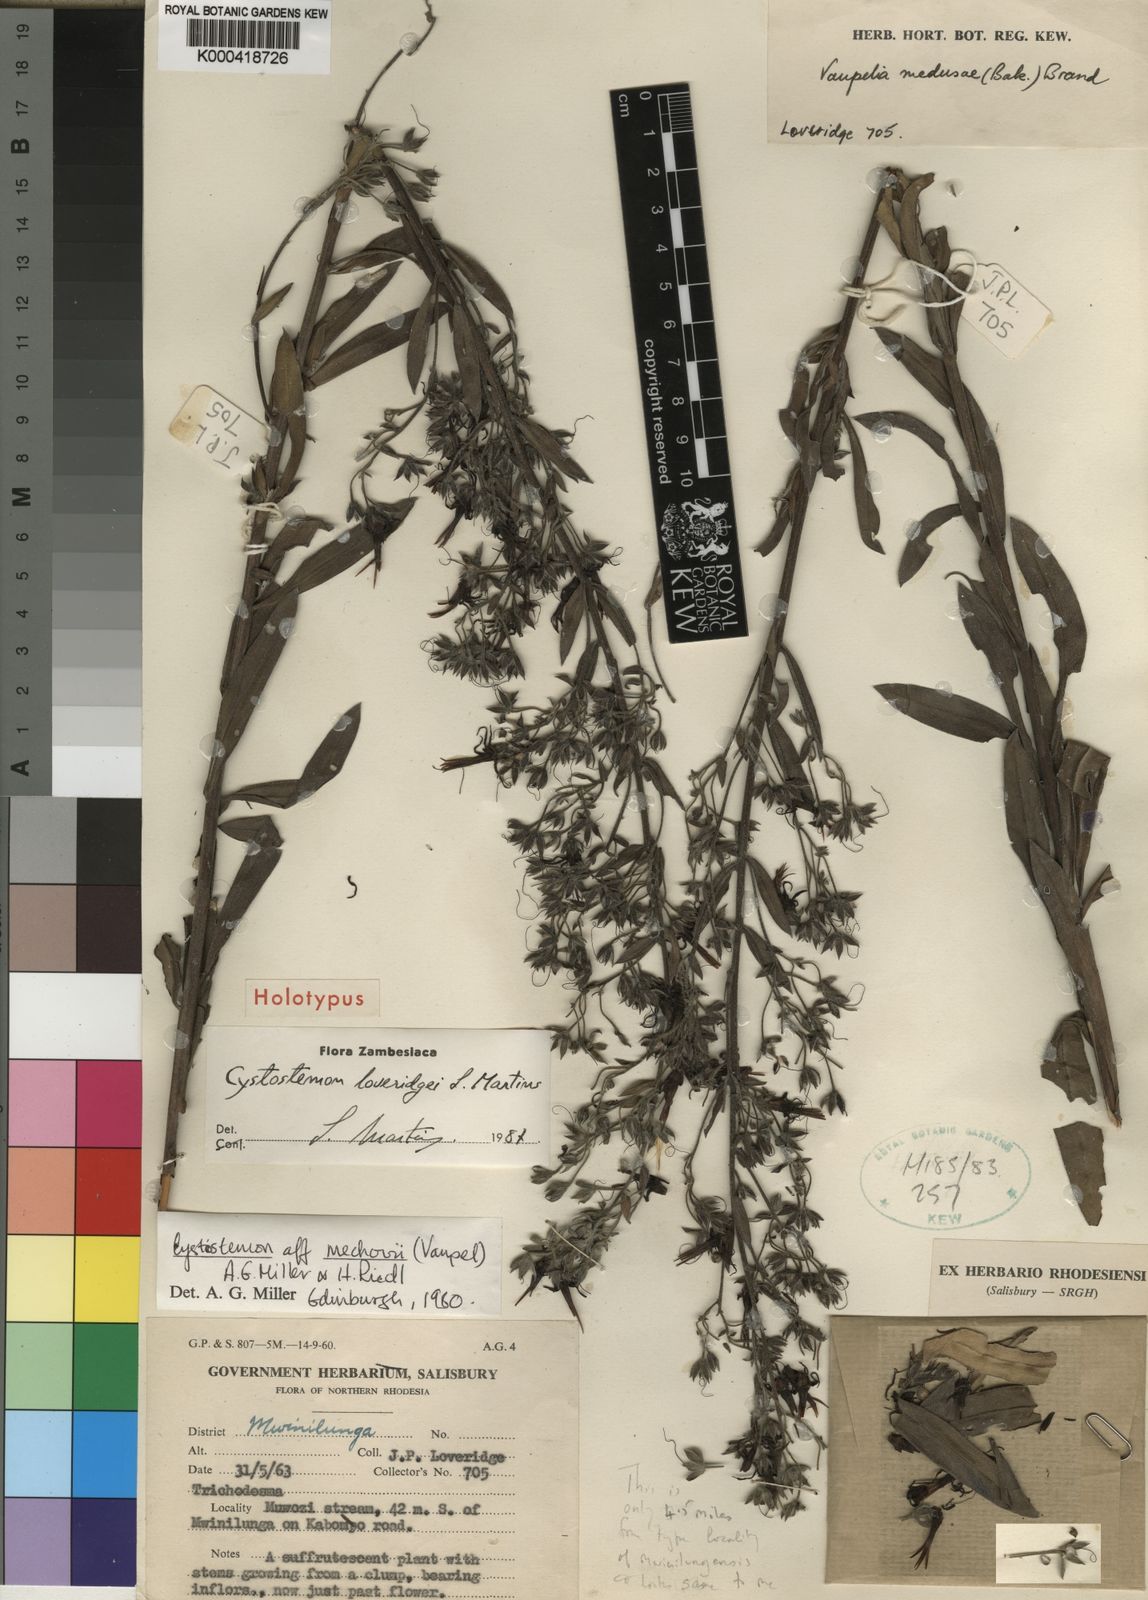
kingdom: Plantae
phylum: Tracheophyta
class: Magnoliopsida
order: Boraginales
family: Boraginaceae
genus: Cystostemon
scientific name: Cystostemon mechowii
